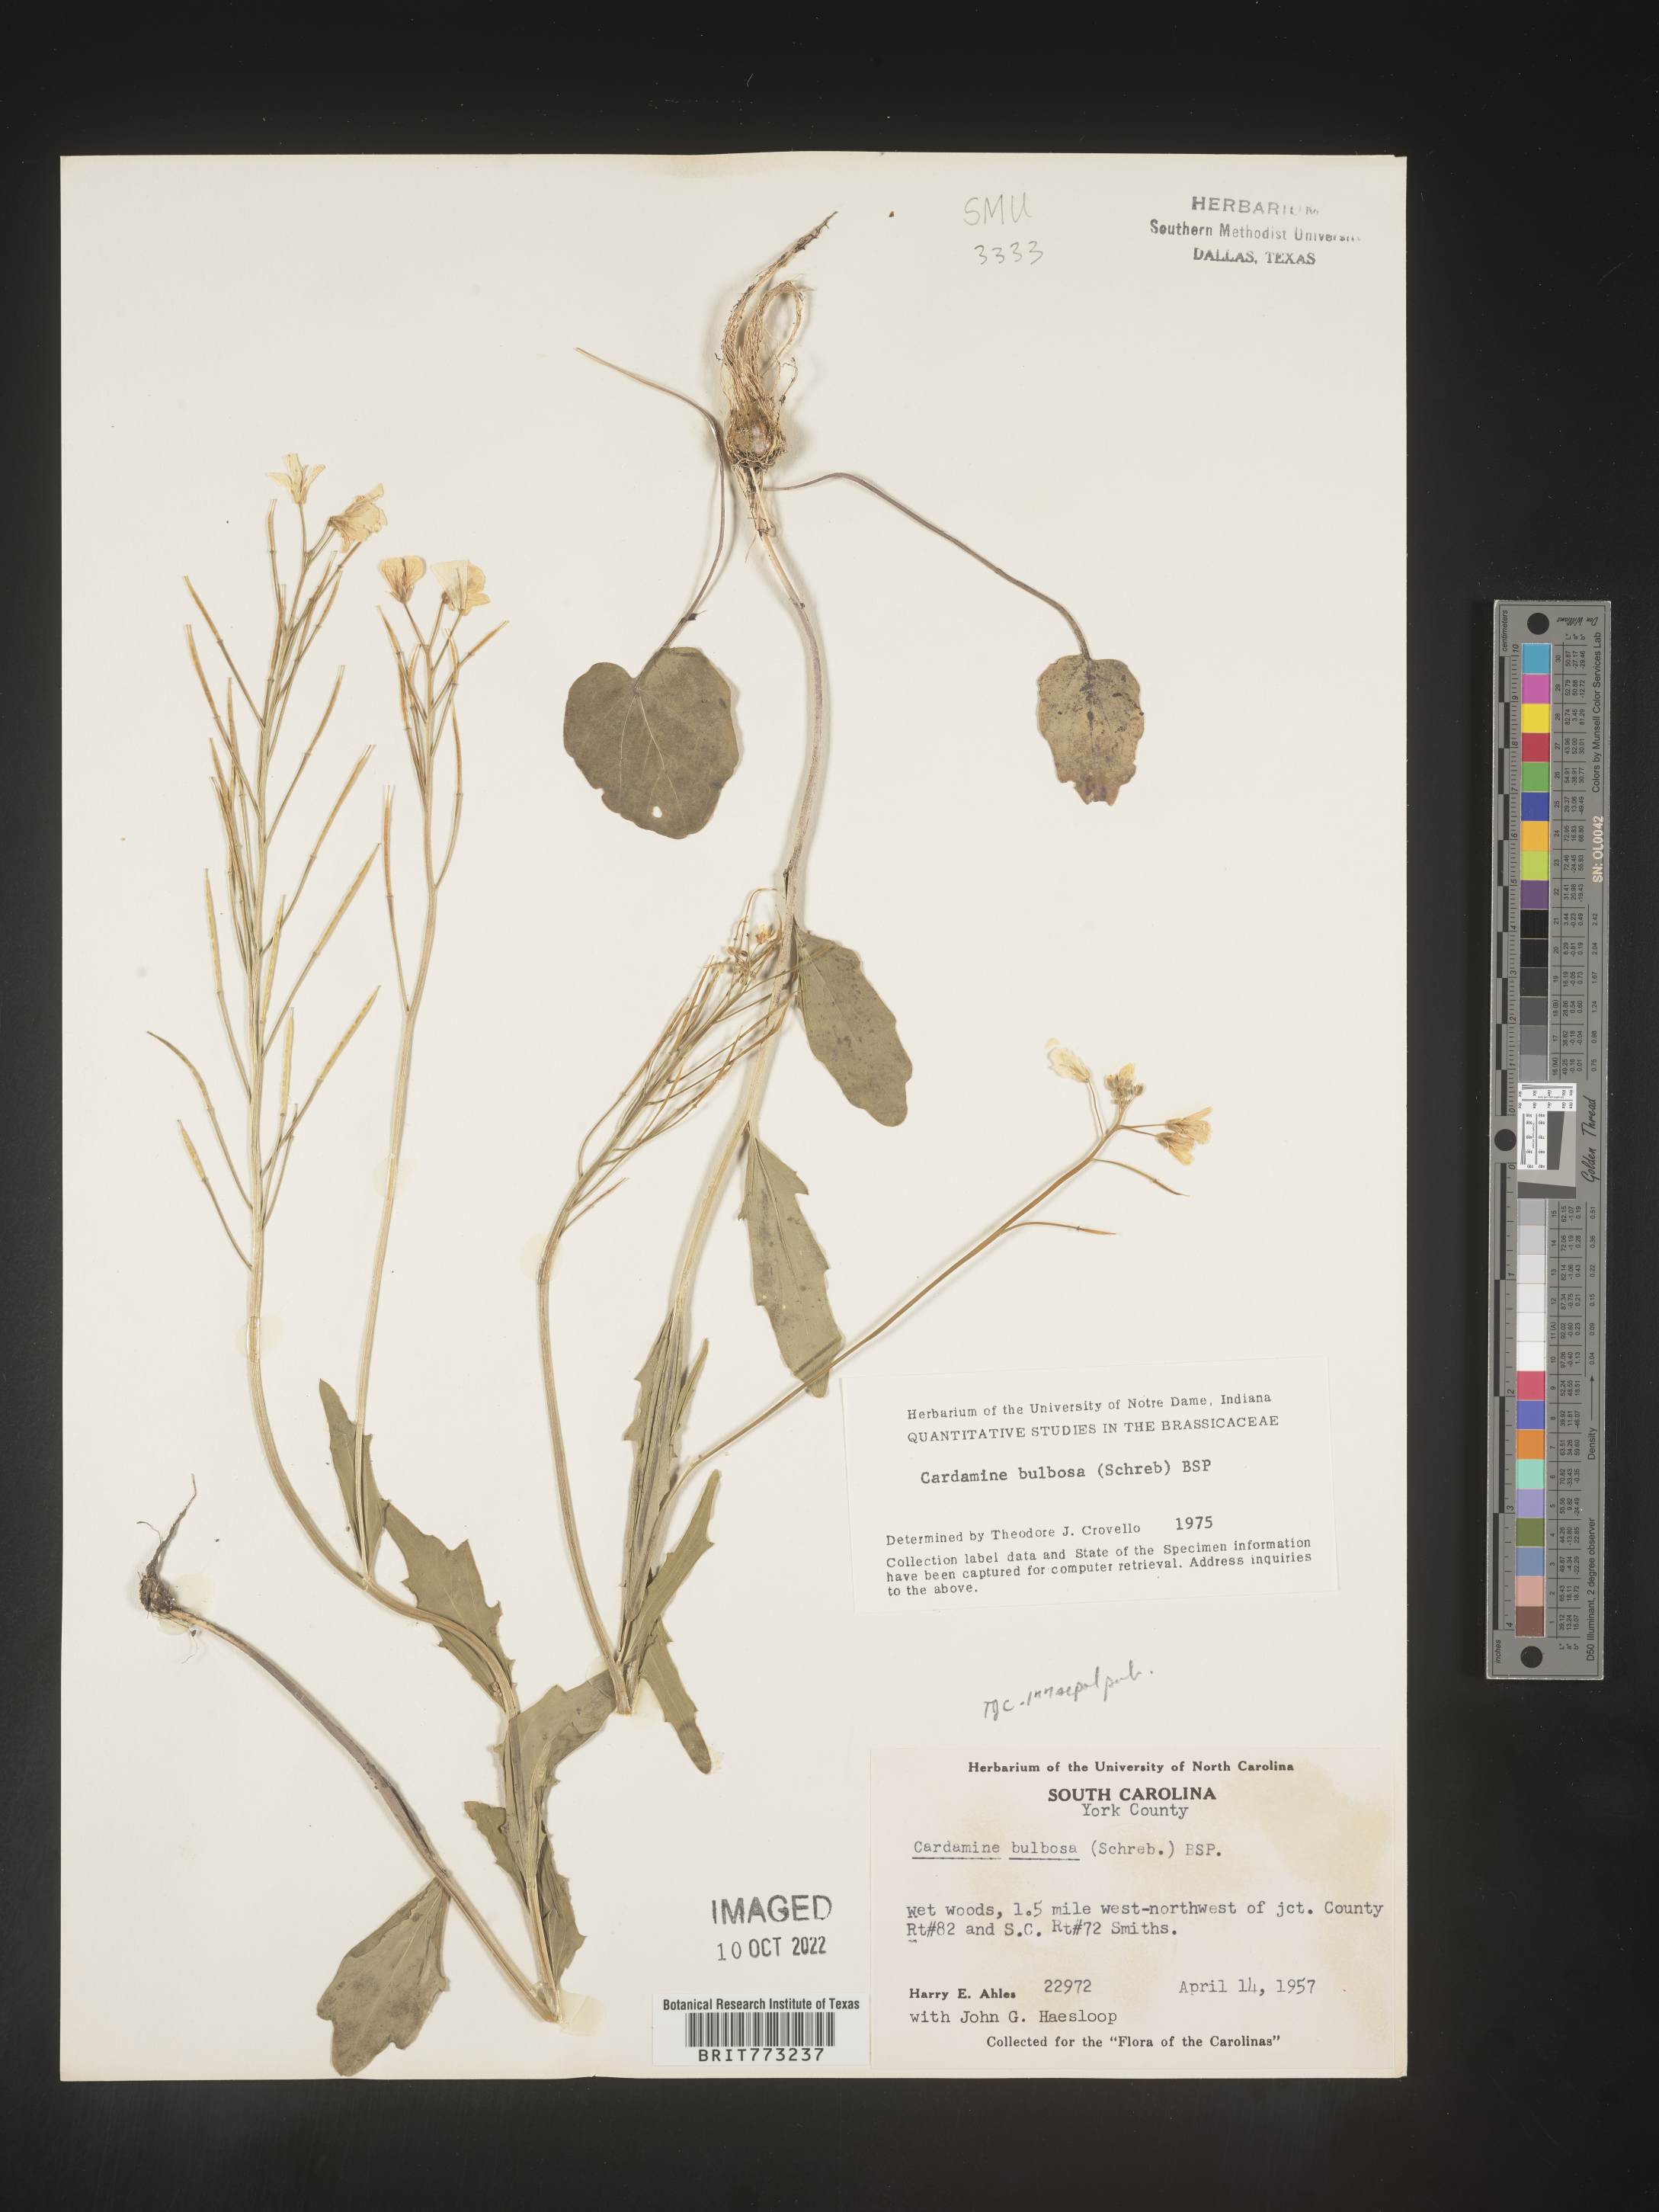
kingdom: Plantae
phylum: Tracheophyta
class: Magnoliopsida
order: Brassicales
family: Brassicaceae
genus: Cardamine
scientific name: Cardamine bulbosa
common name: Spring cress
